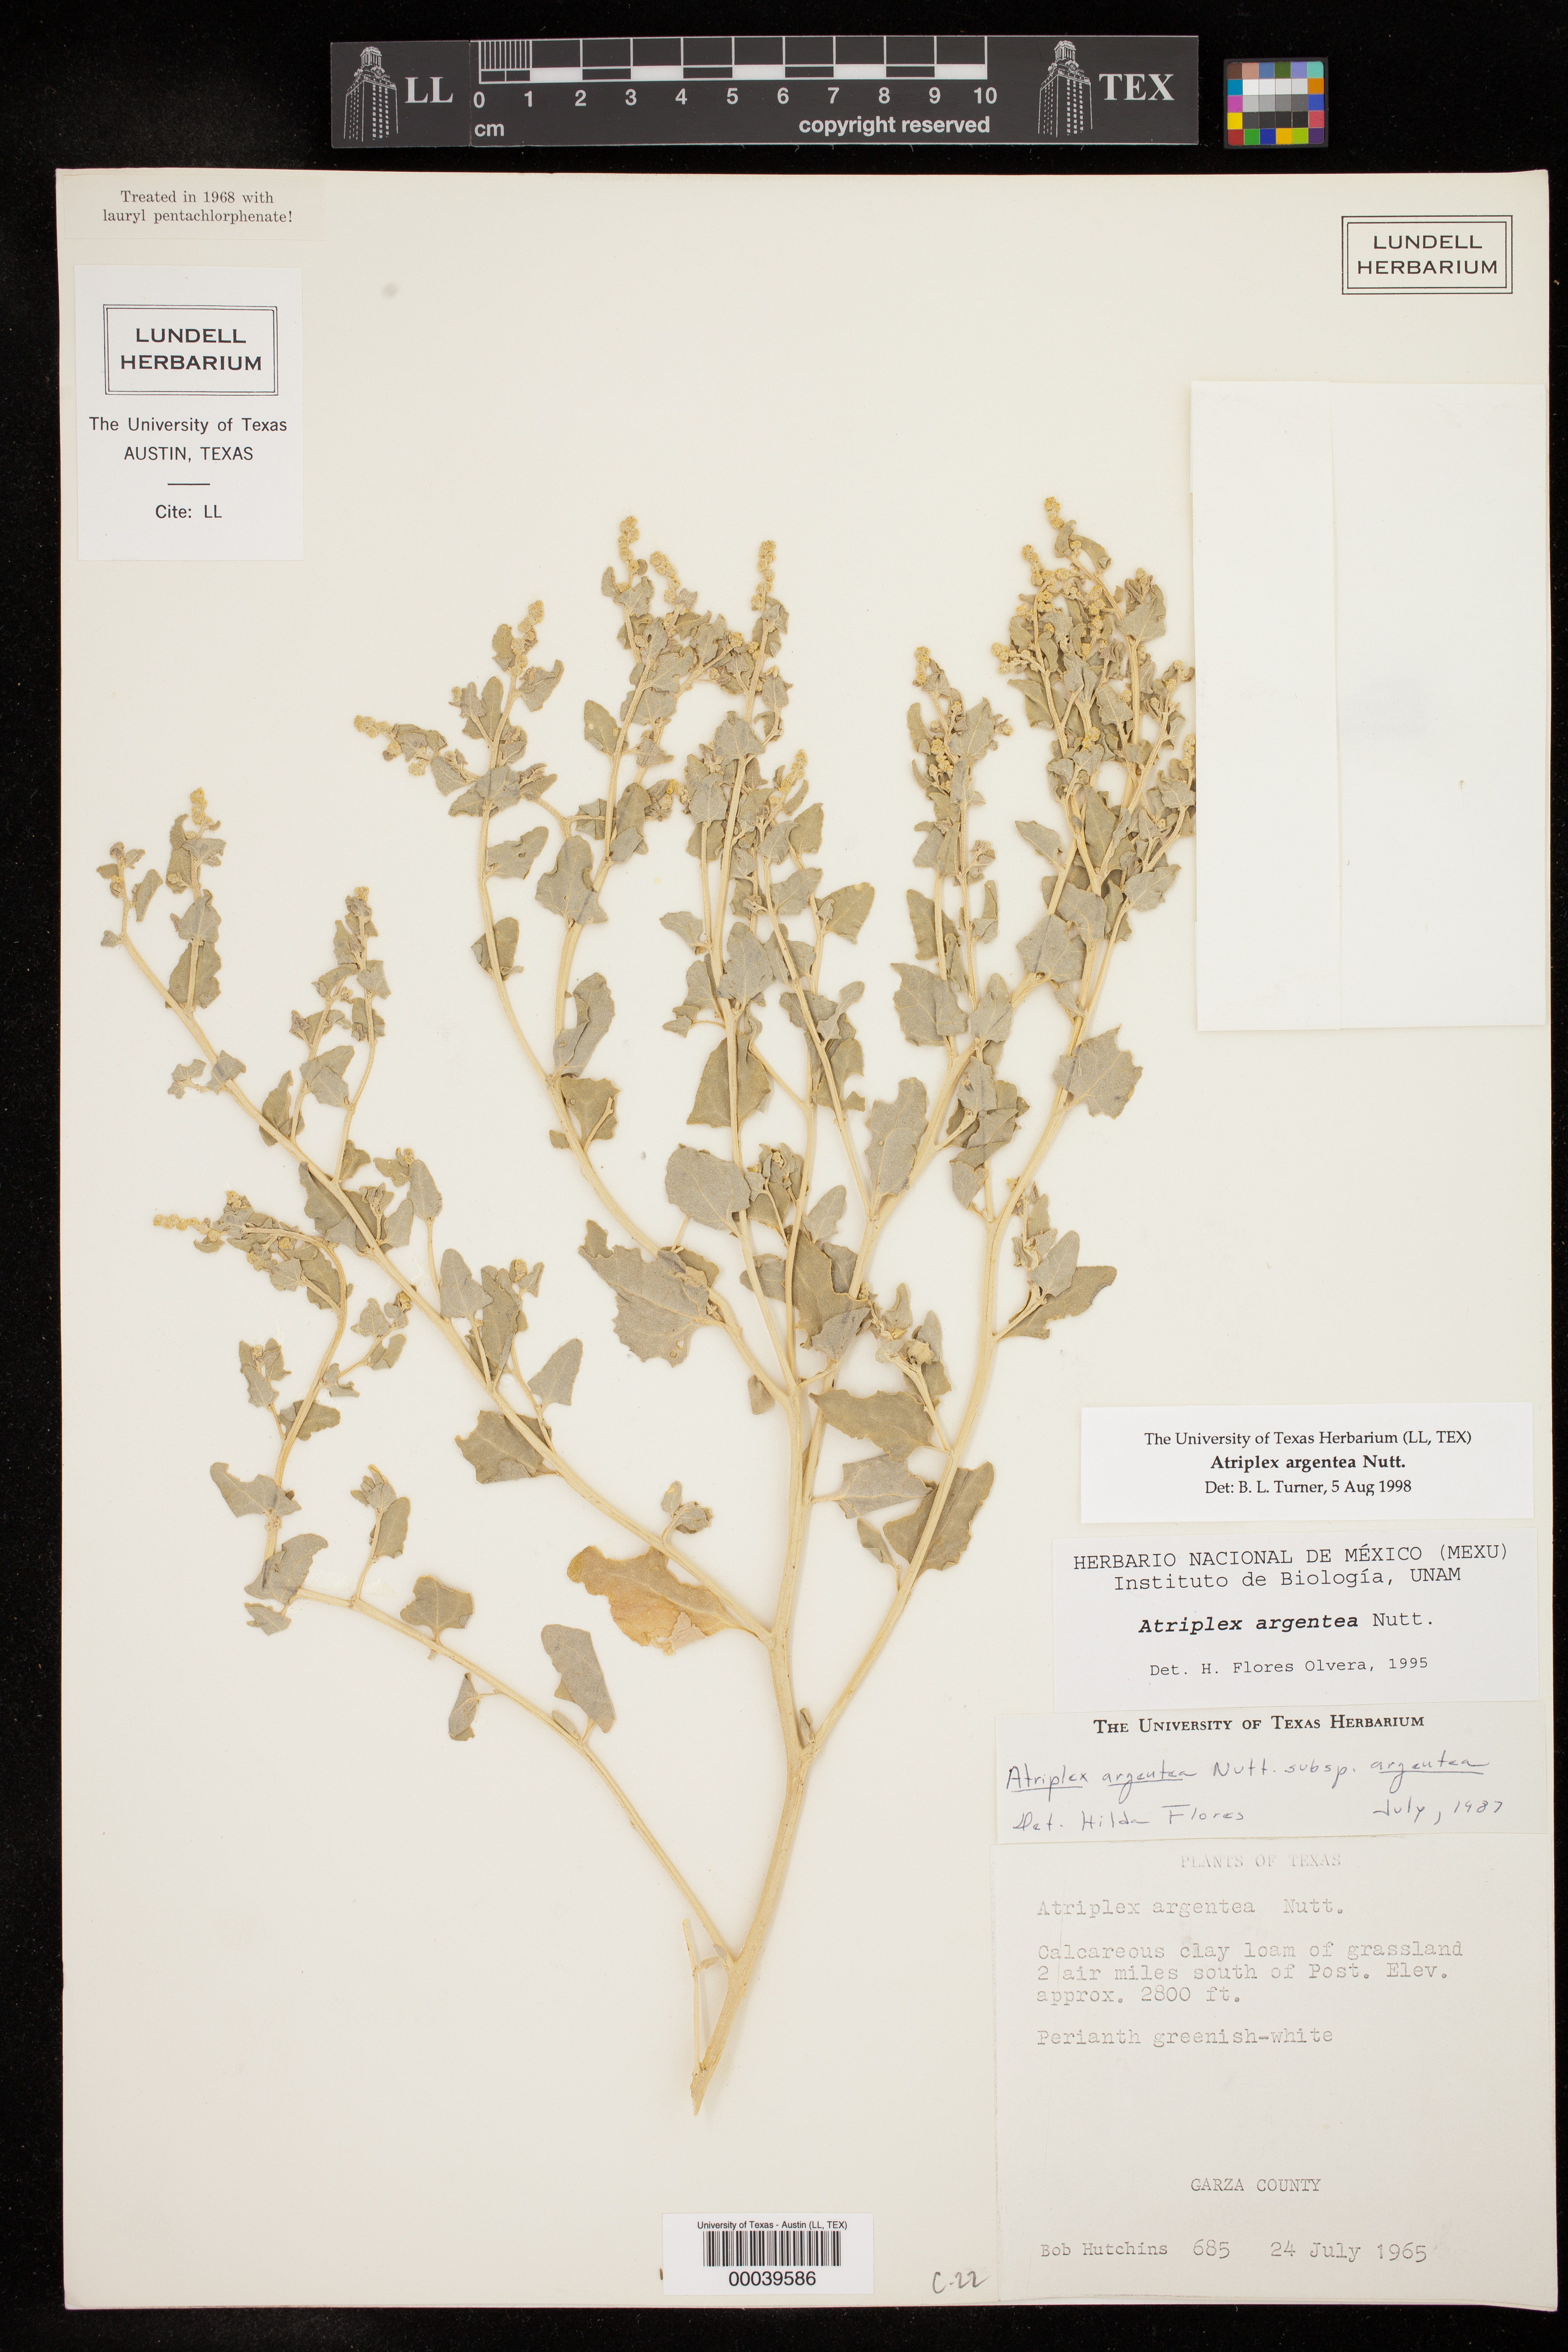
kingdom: Plantae
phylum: Tracheophyta
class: Magnoliopsida
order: Caryophyllales
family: Amaranthaceae
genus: Atriplex
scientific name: Atriplex argentea
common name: Silverscale
